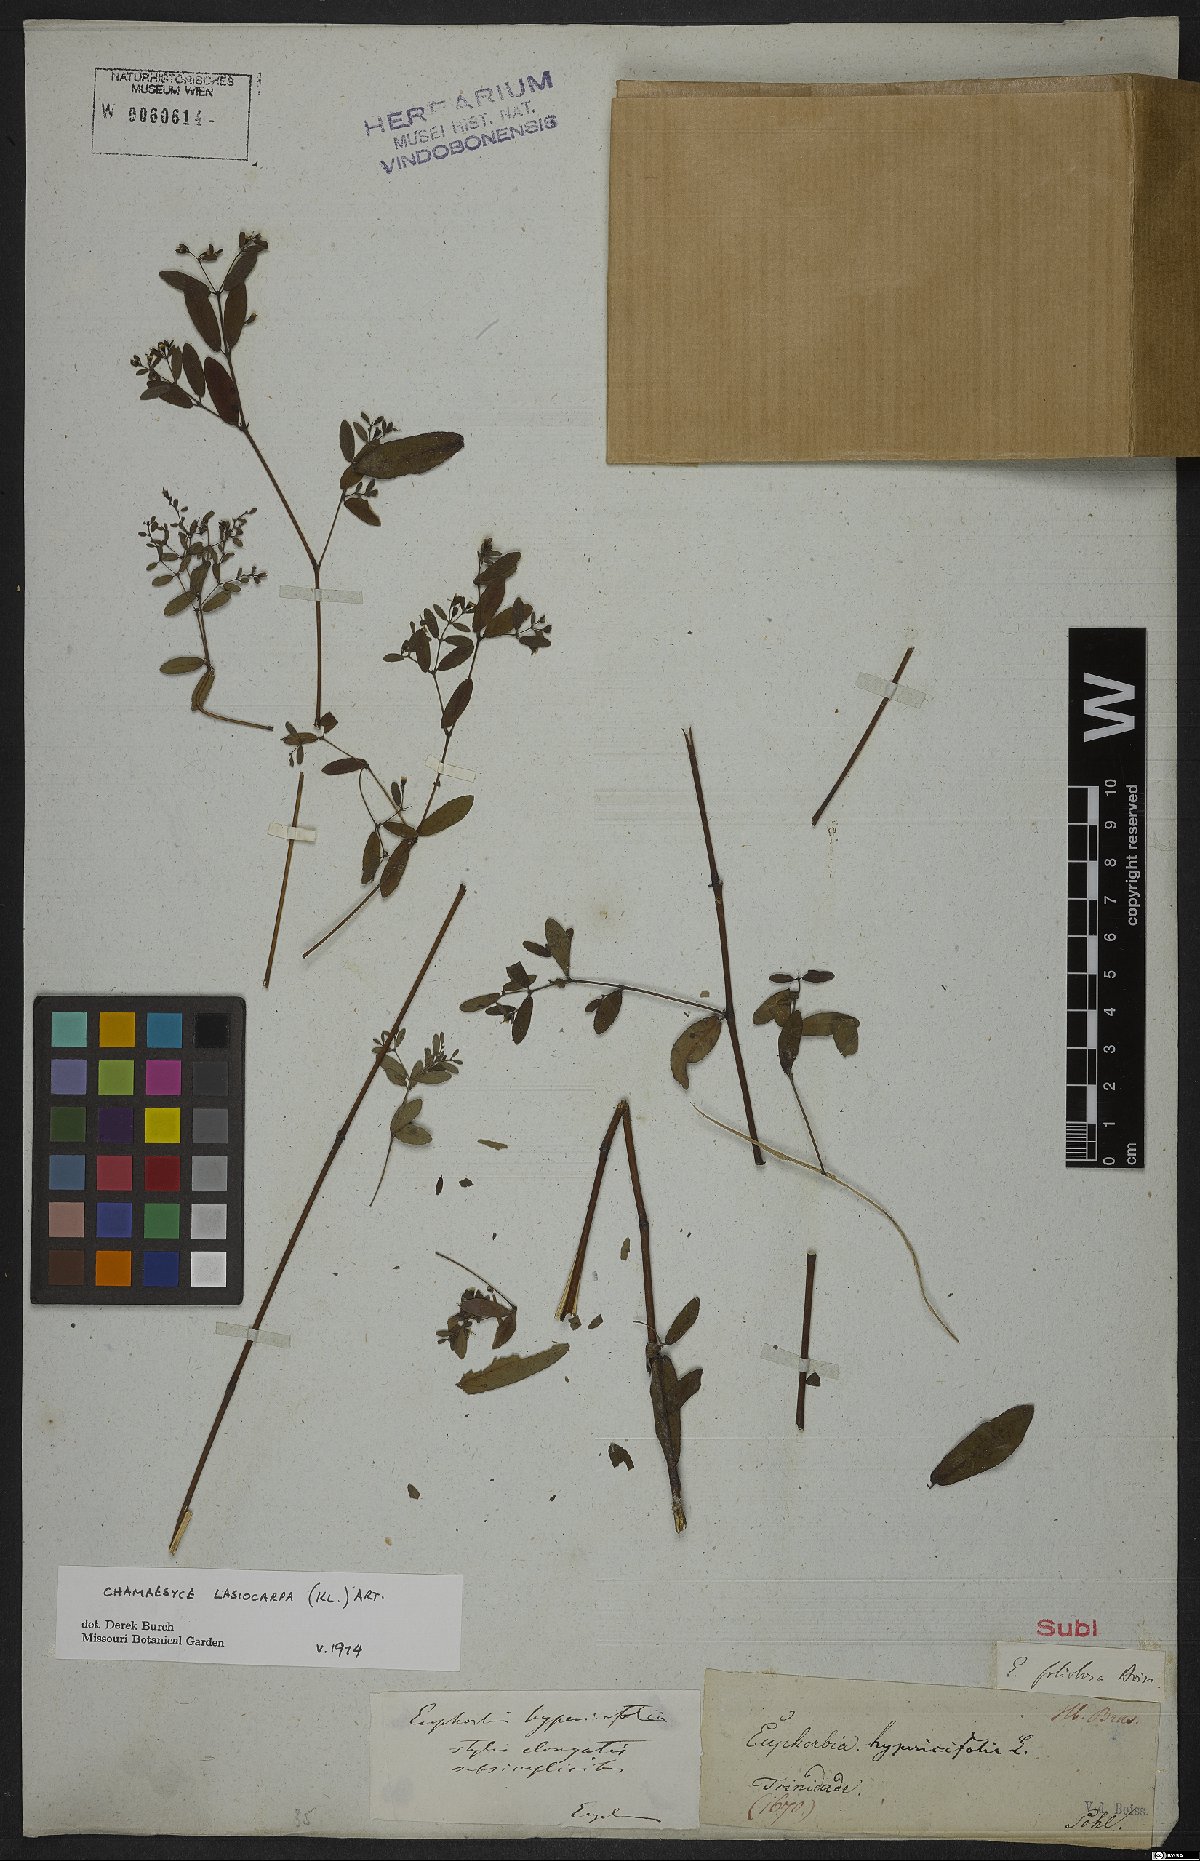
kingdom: Plantae
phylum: Tracheophyta
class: Magnoliopsida
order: Malpighiales
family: Euphorbiaceae
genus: Euphorbia
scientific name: Euphorbia lasiocarpa
